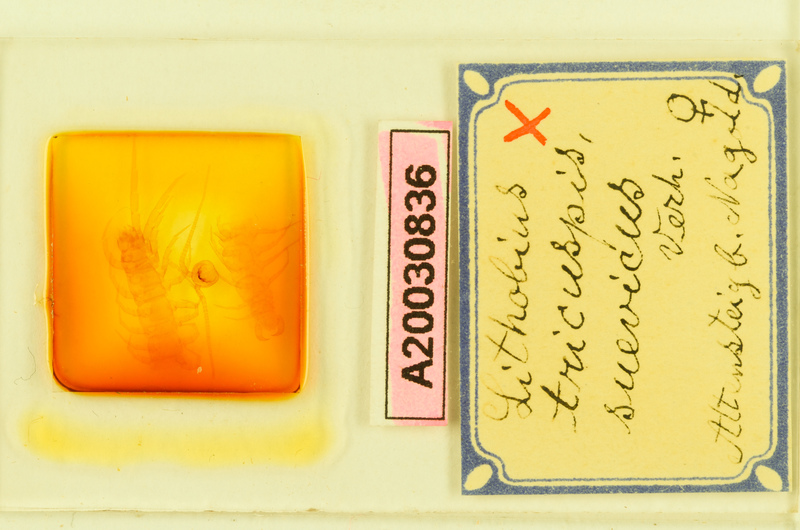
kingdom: Animalia
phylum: Arthropoda
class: Chilopoda
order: Lithobiomorpha
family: Lithobiidae
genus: Lithobius
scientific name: Lithobius tricuspis
